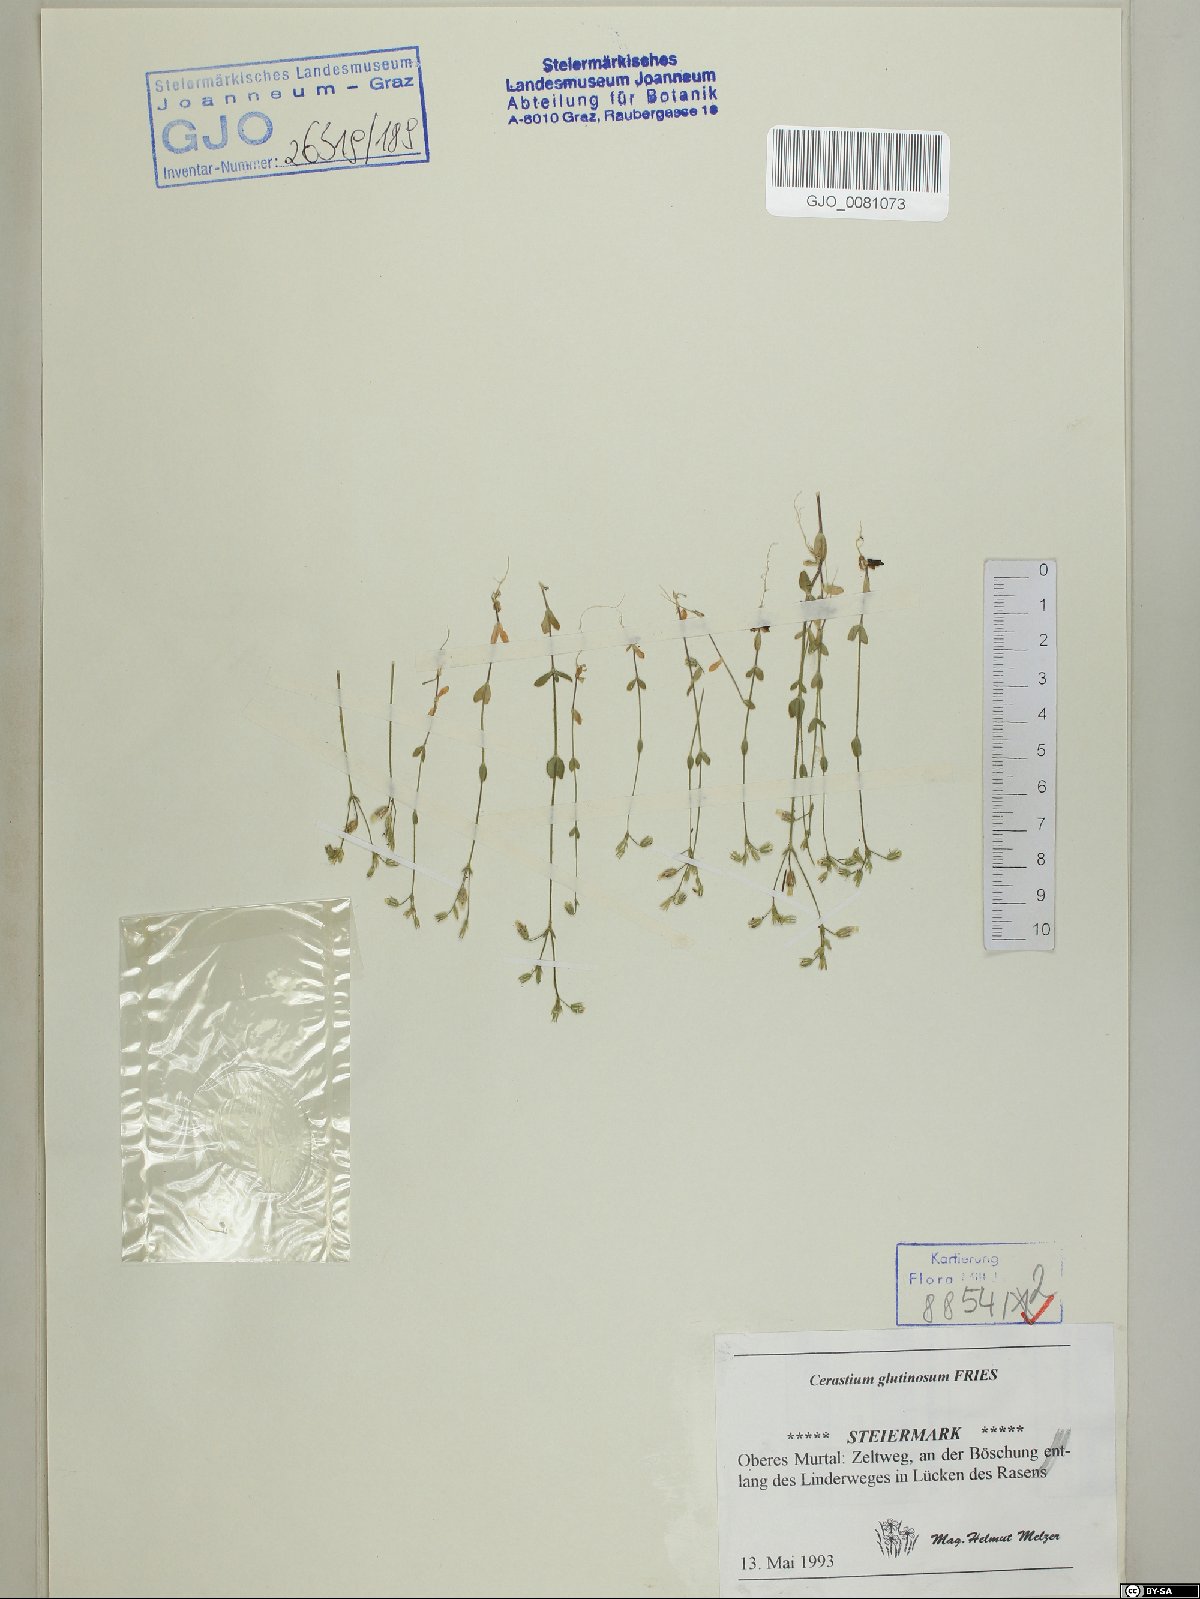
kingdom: Plantae
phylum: Tracheophyta
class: Magnoliopsida
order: Caryophyllales
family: Caryophyllaceae
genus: Cerastium
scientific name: Cerastium glutinosum
